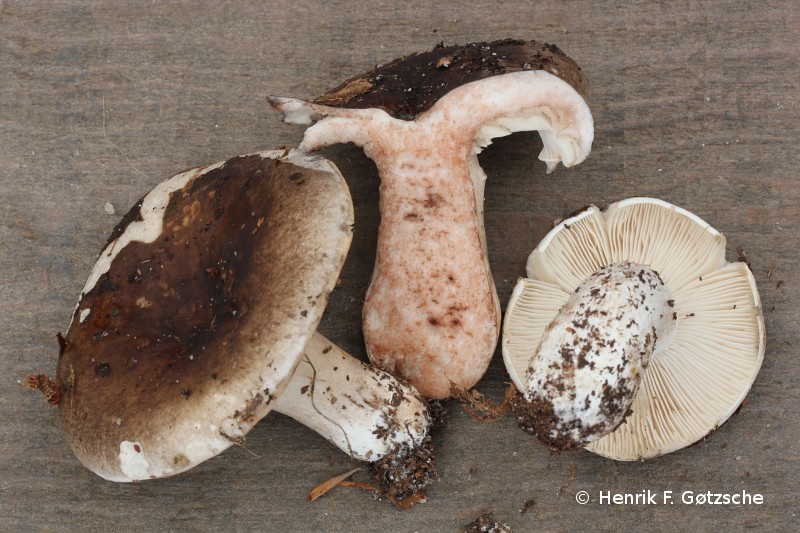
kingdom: Fungi
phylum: Basidiomycota
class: Agaricomycetes
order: Russulales
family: Russulaceae
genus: Russula
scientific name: Russula densifolia
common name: tætbladet skørhat
